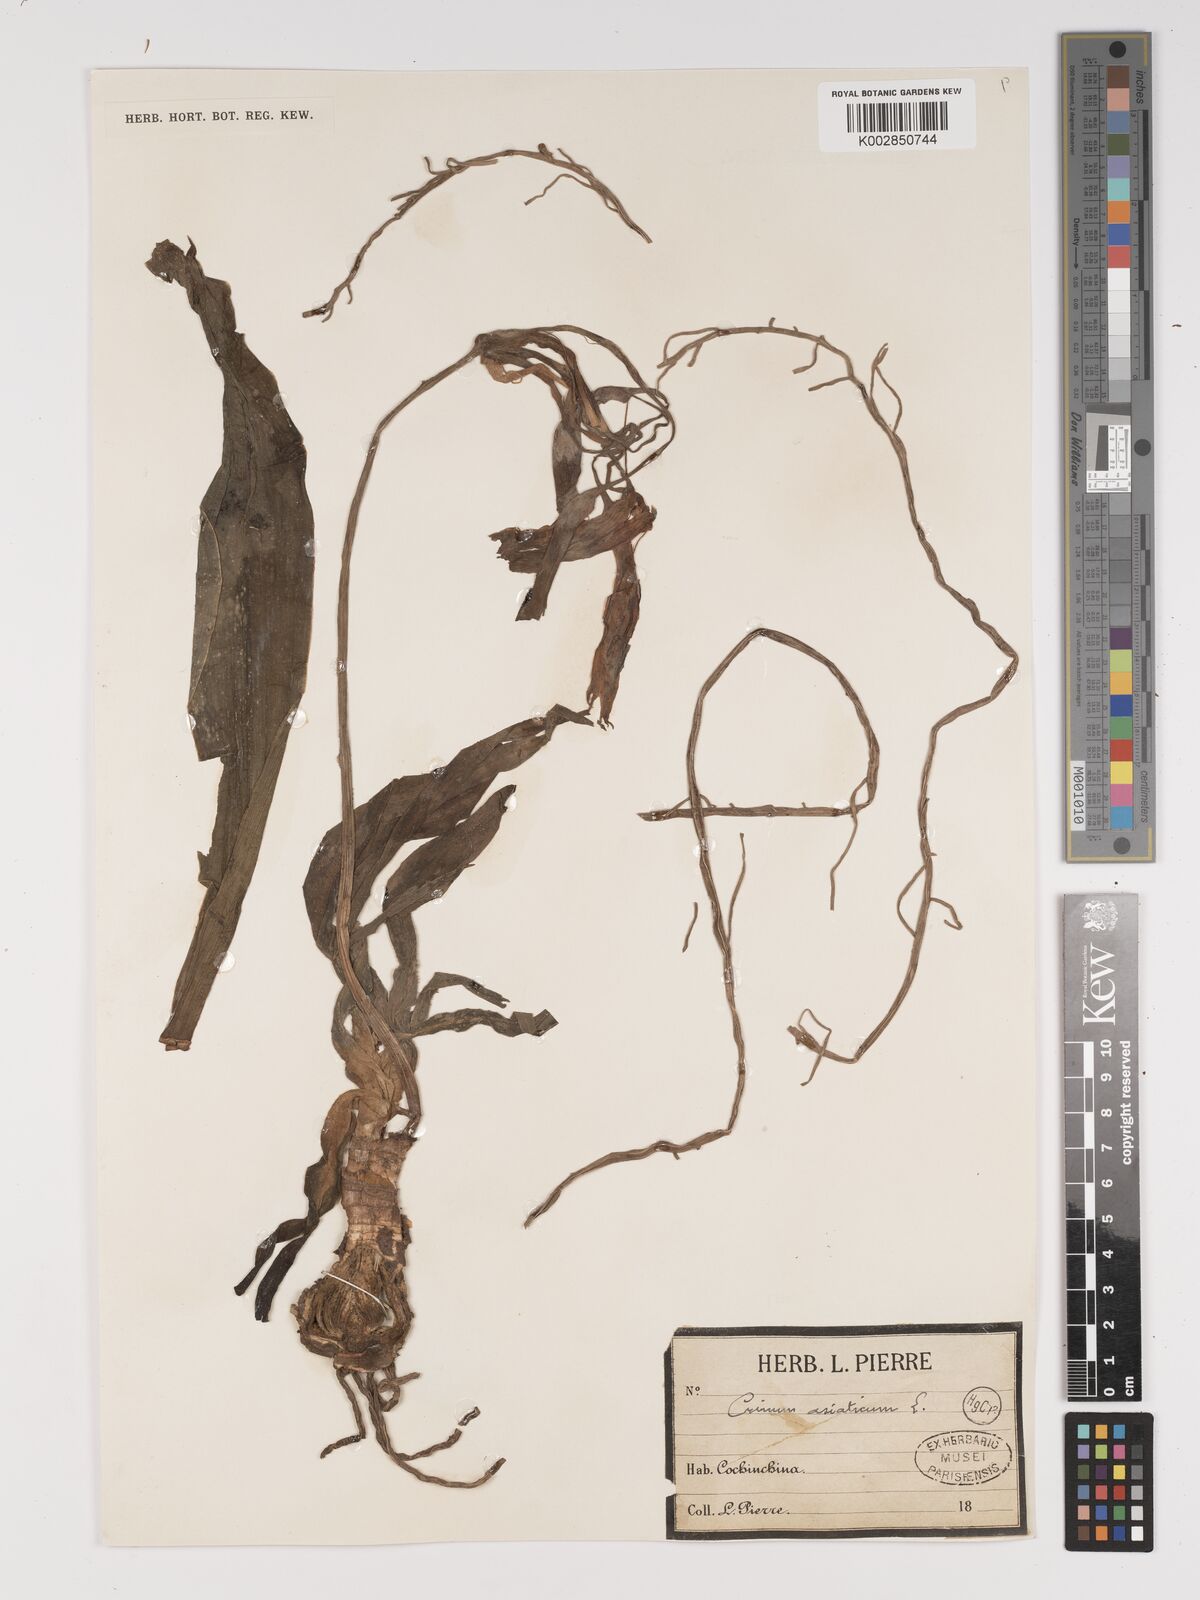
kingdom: Plantae
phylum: Tracheophyta
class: Liliopsida
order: Asparagales
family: Amaryllidaceae
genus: Crinum
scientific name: Crinum asiaticum
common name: Poisonbulb
